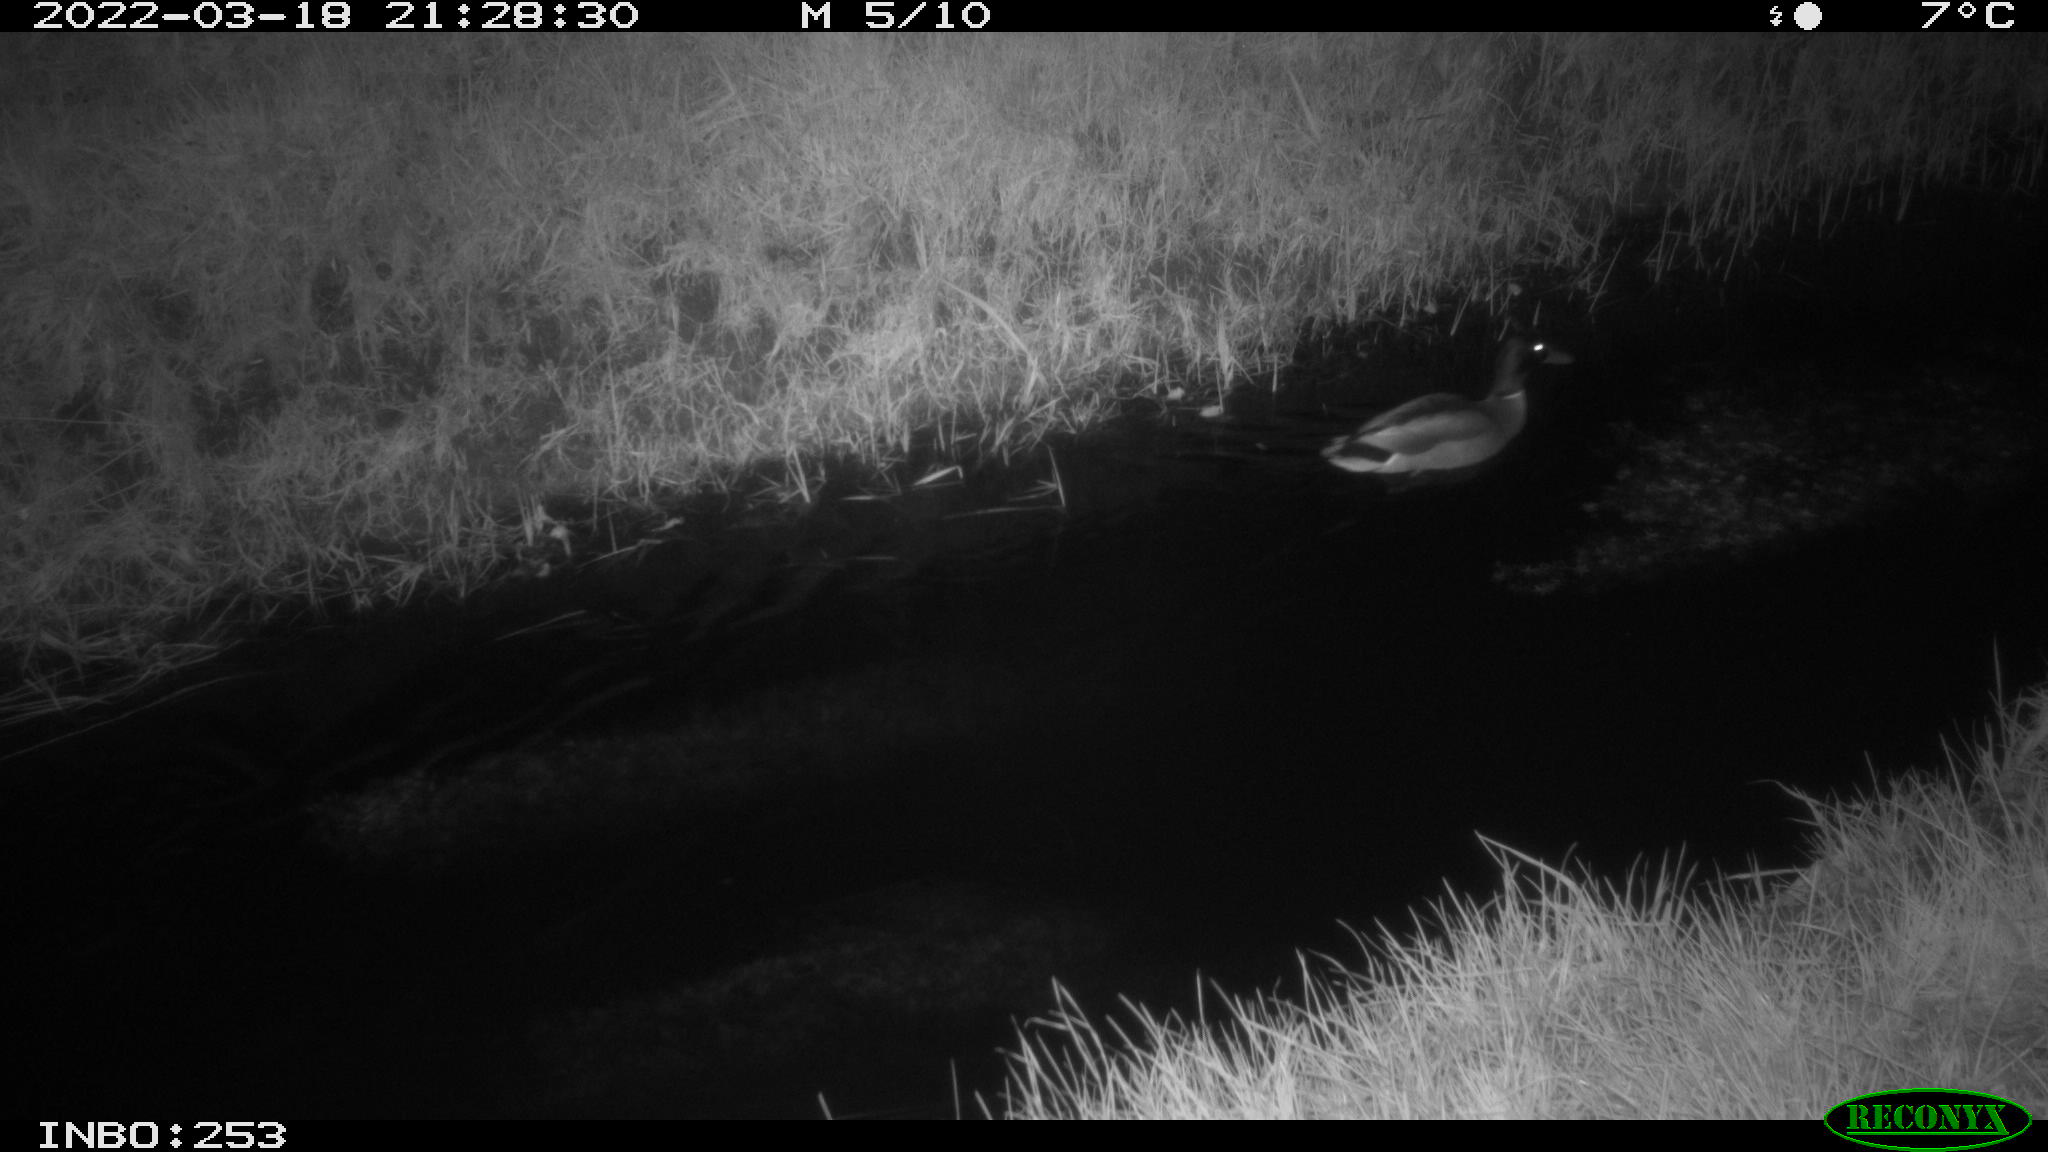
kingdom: Animalia
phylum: Chordata
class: Aves
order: Anseriformes
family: Anatidae
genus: Anas
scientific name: Anas platyrhynchos
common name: Mallard
